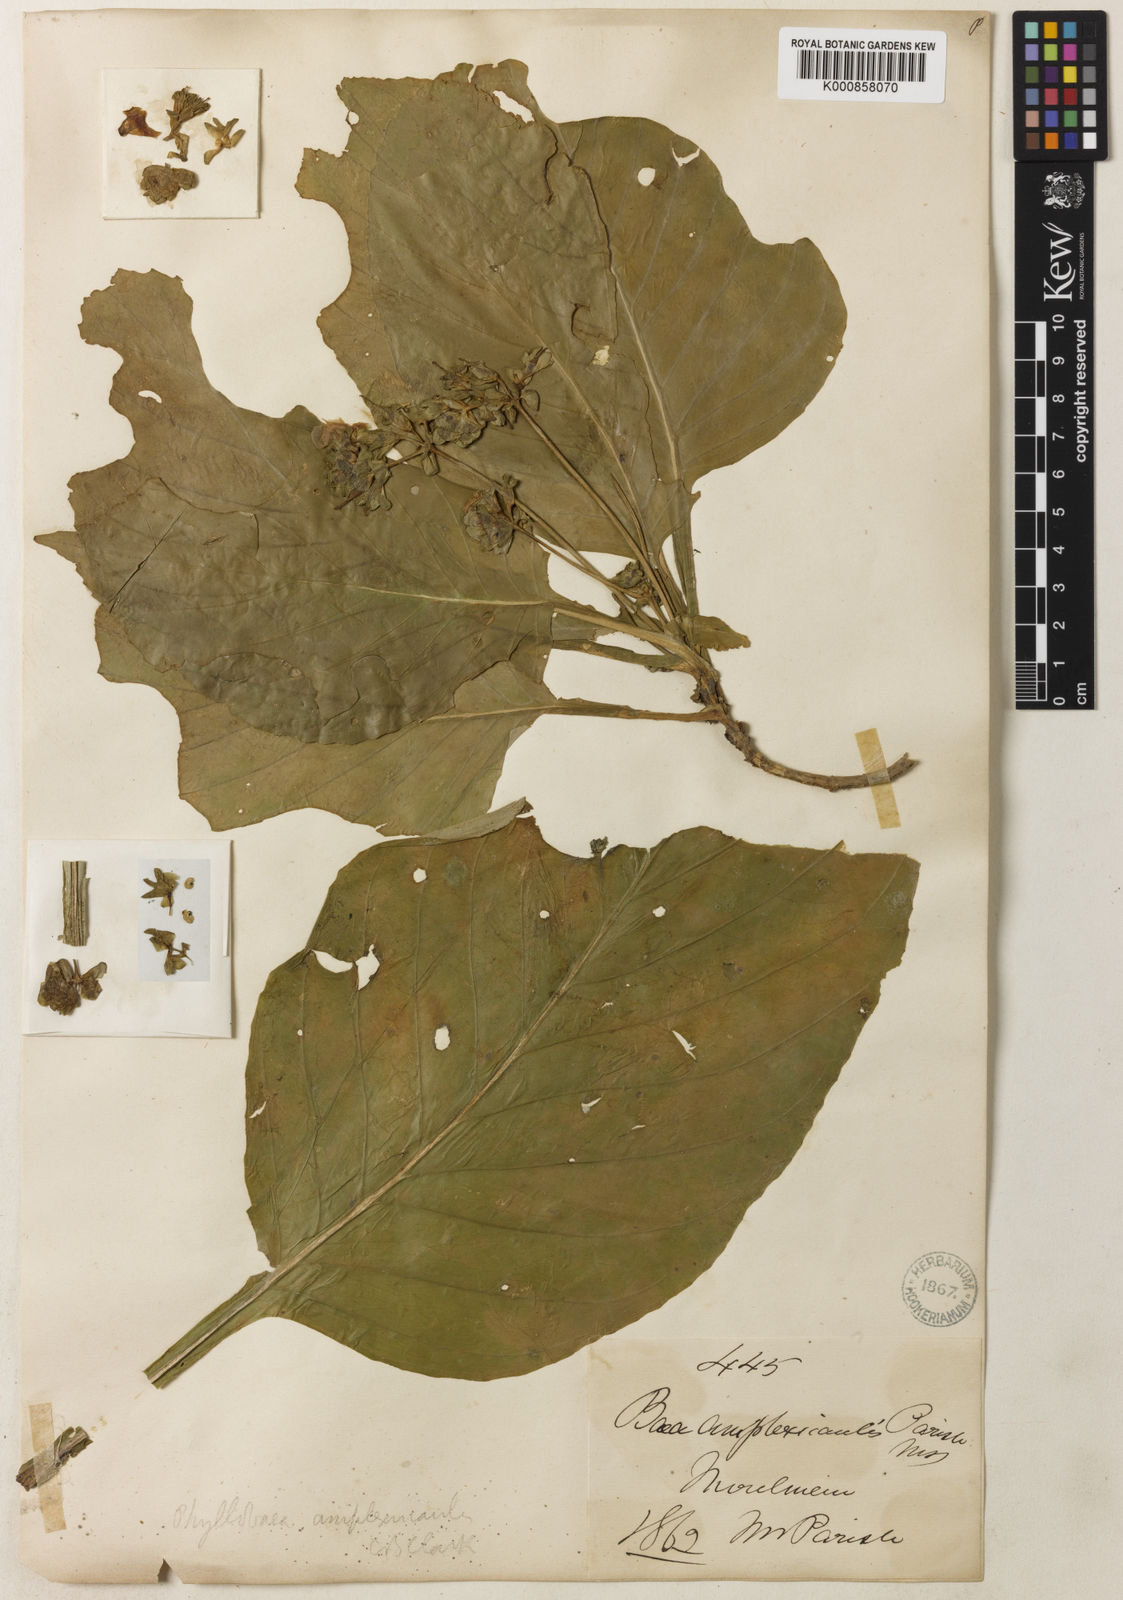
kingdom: Plantae
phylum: Tracheophyta
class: Magnoliopsida
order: Lamiales
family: Gesneriaceae
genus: Paraboea
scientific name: Paraboea glandulosa
